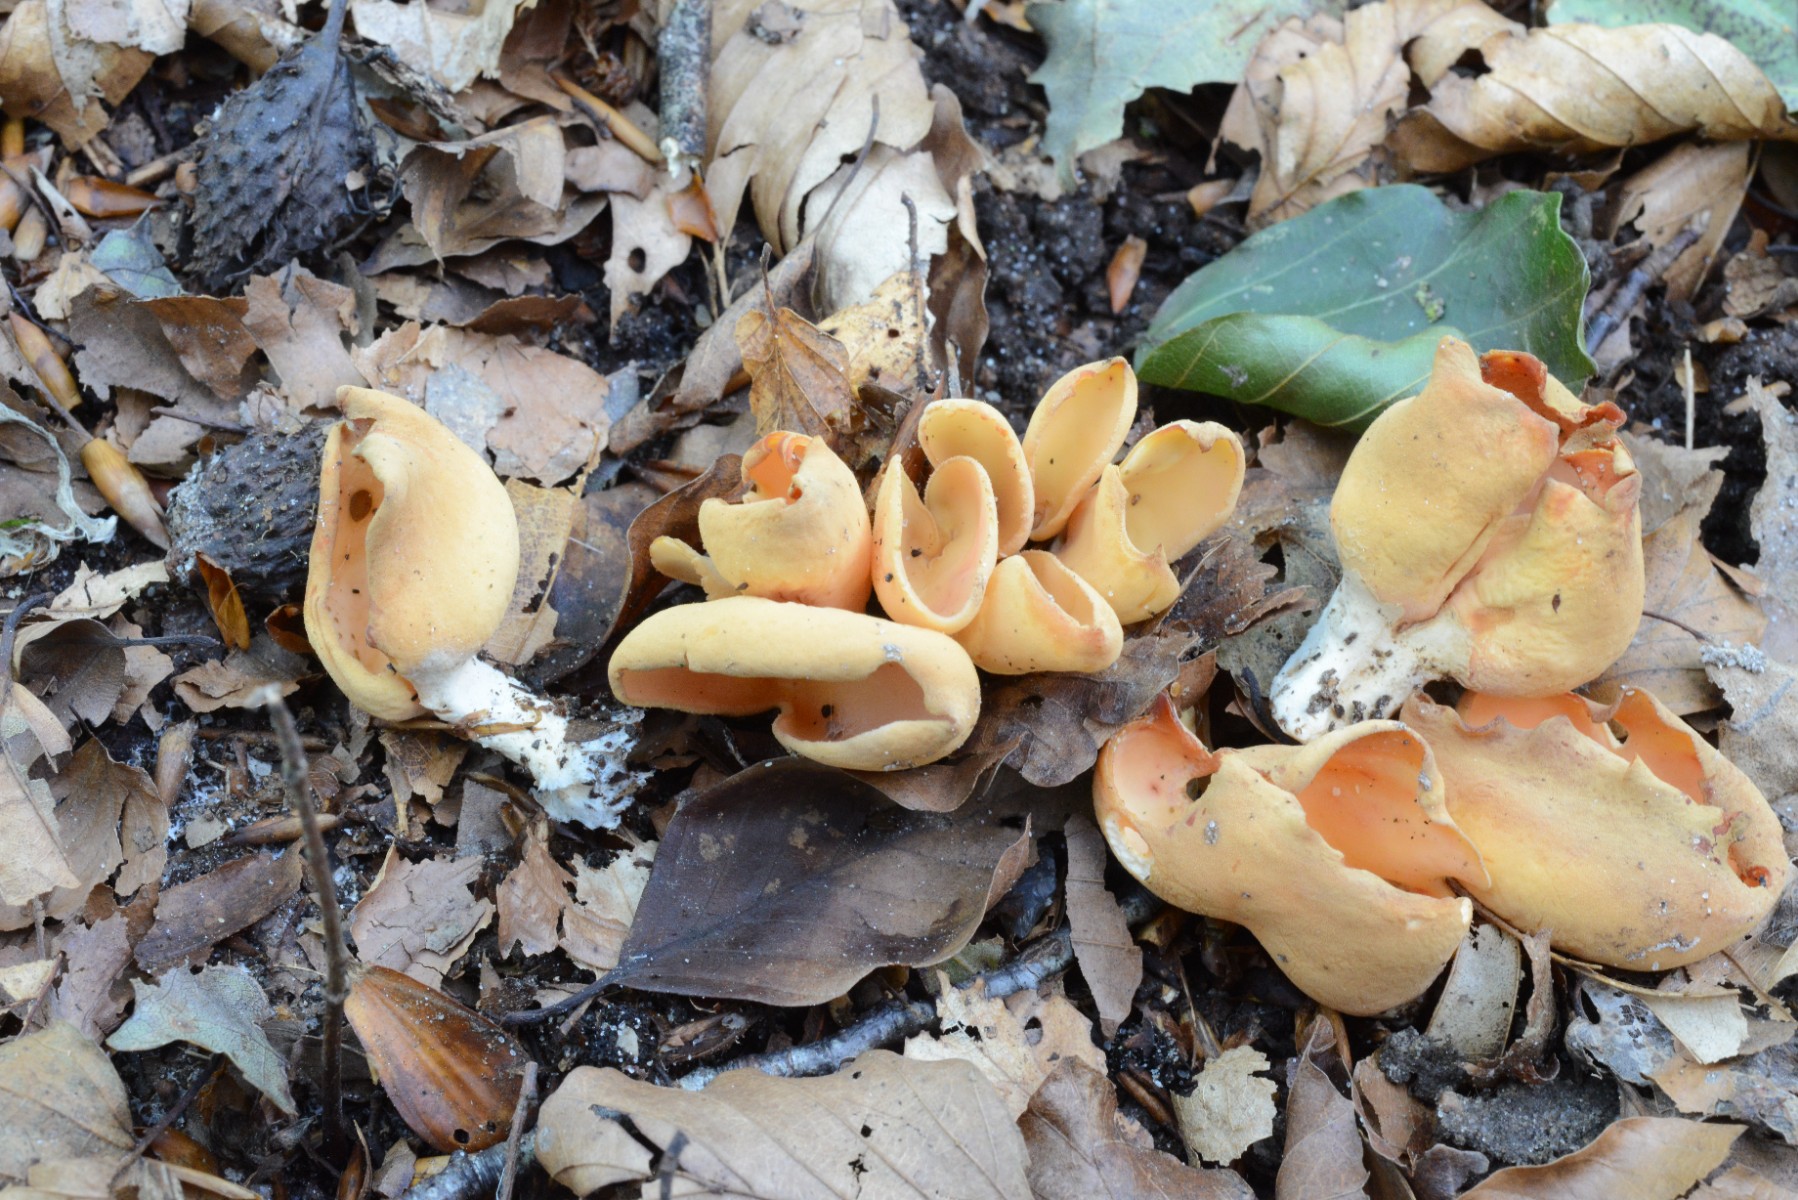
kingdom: Fungi
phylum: Ascomycota
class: Pezizomycetes
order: Pezizales
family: Otideaceae
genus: Otidea
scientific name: Otidea onotica
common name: æsel-ørebæger
